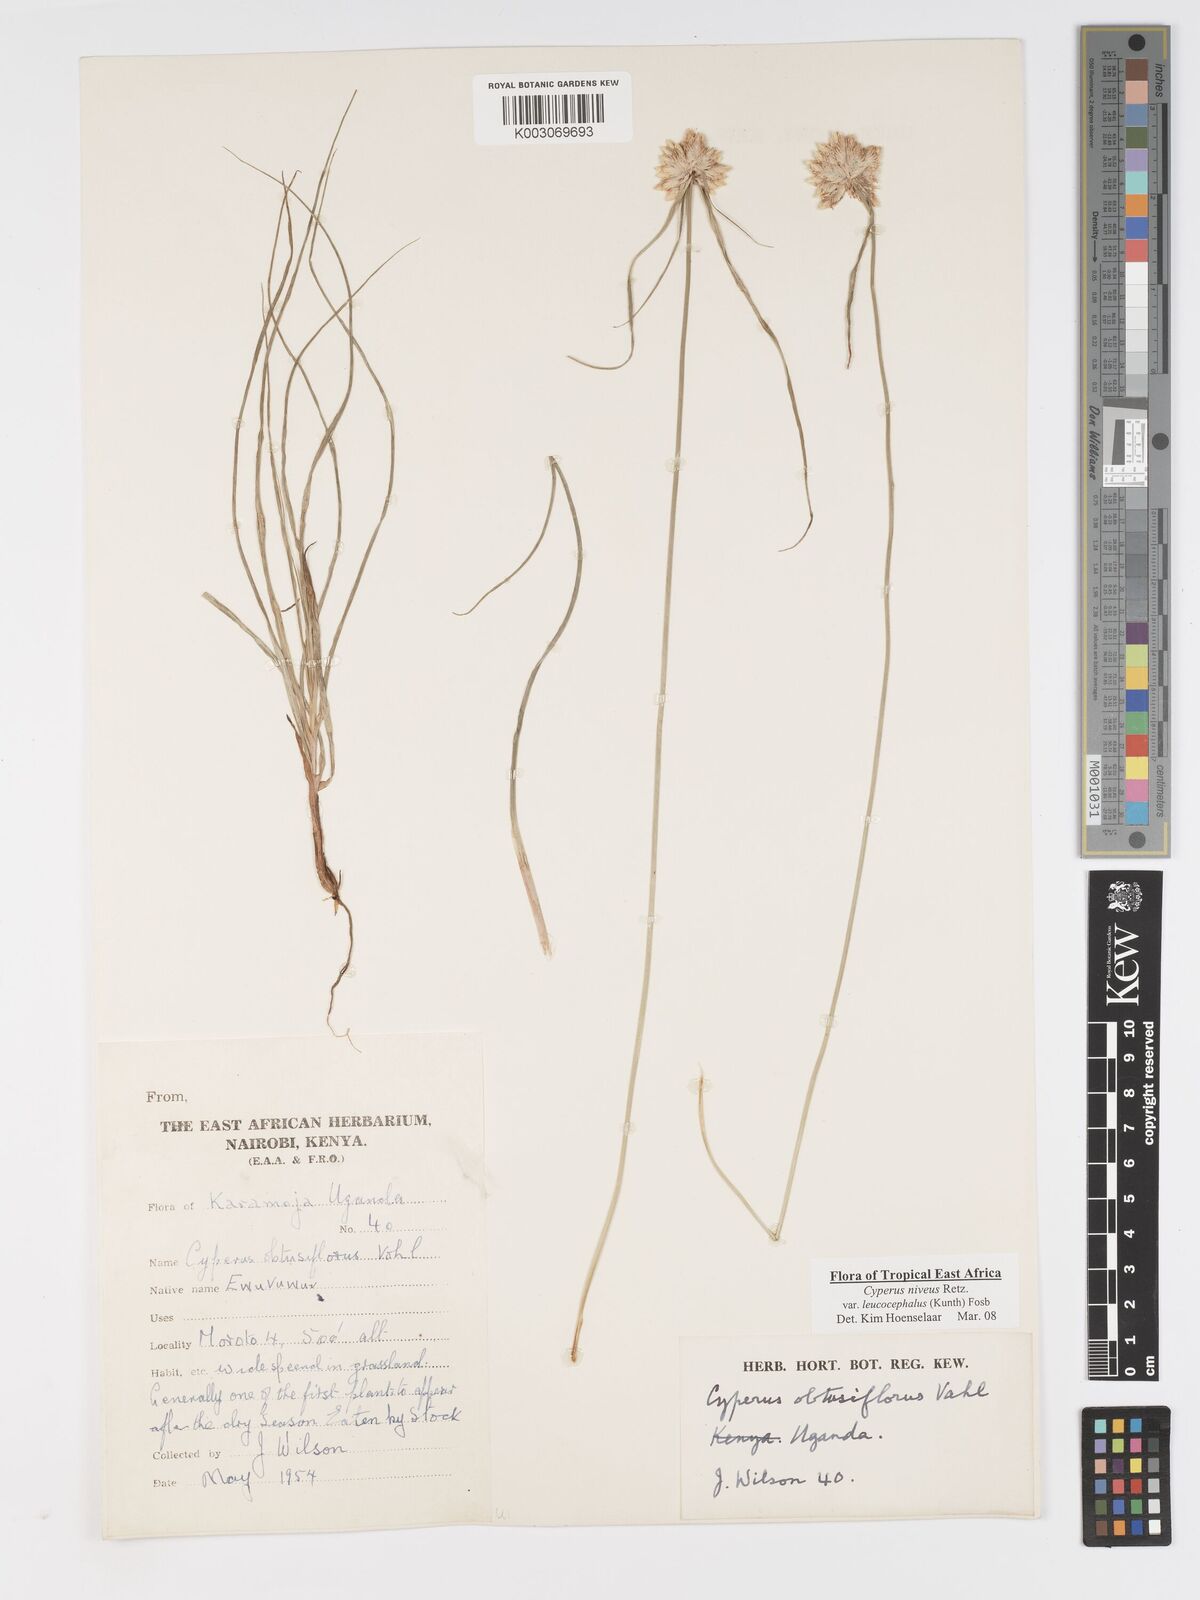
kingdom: Plantae
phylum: Tracheophyta
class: Liliopsida
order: Poales
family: Cyperaceae
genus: Cyperus
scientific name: Cyperus niveus
